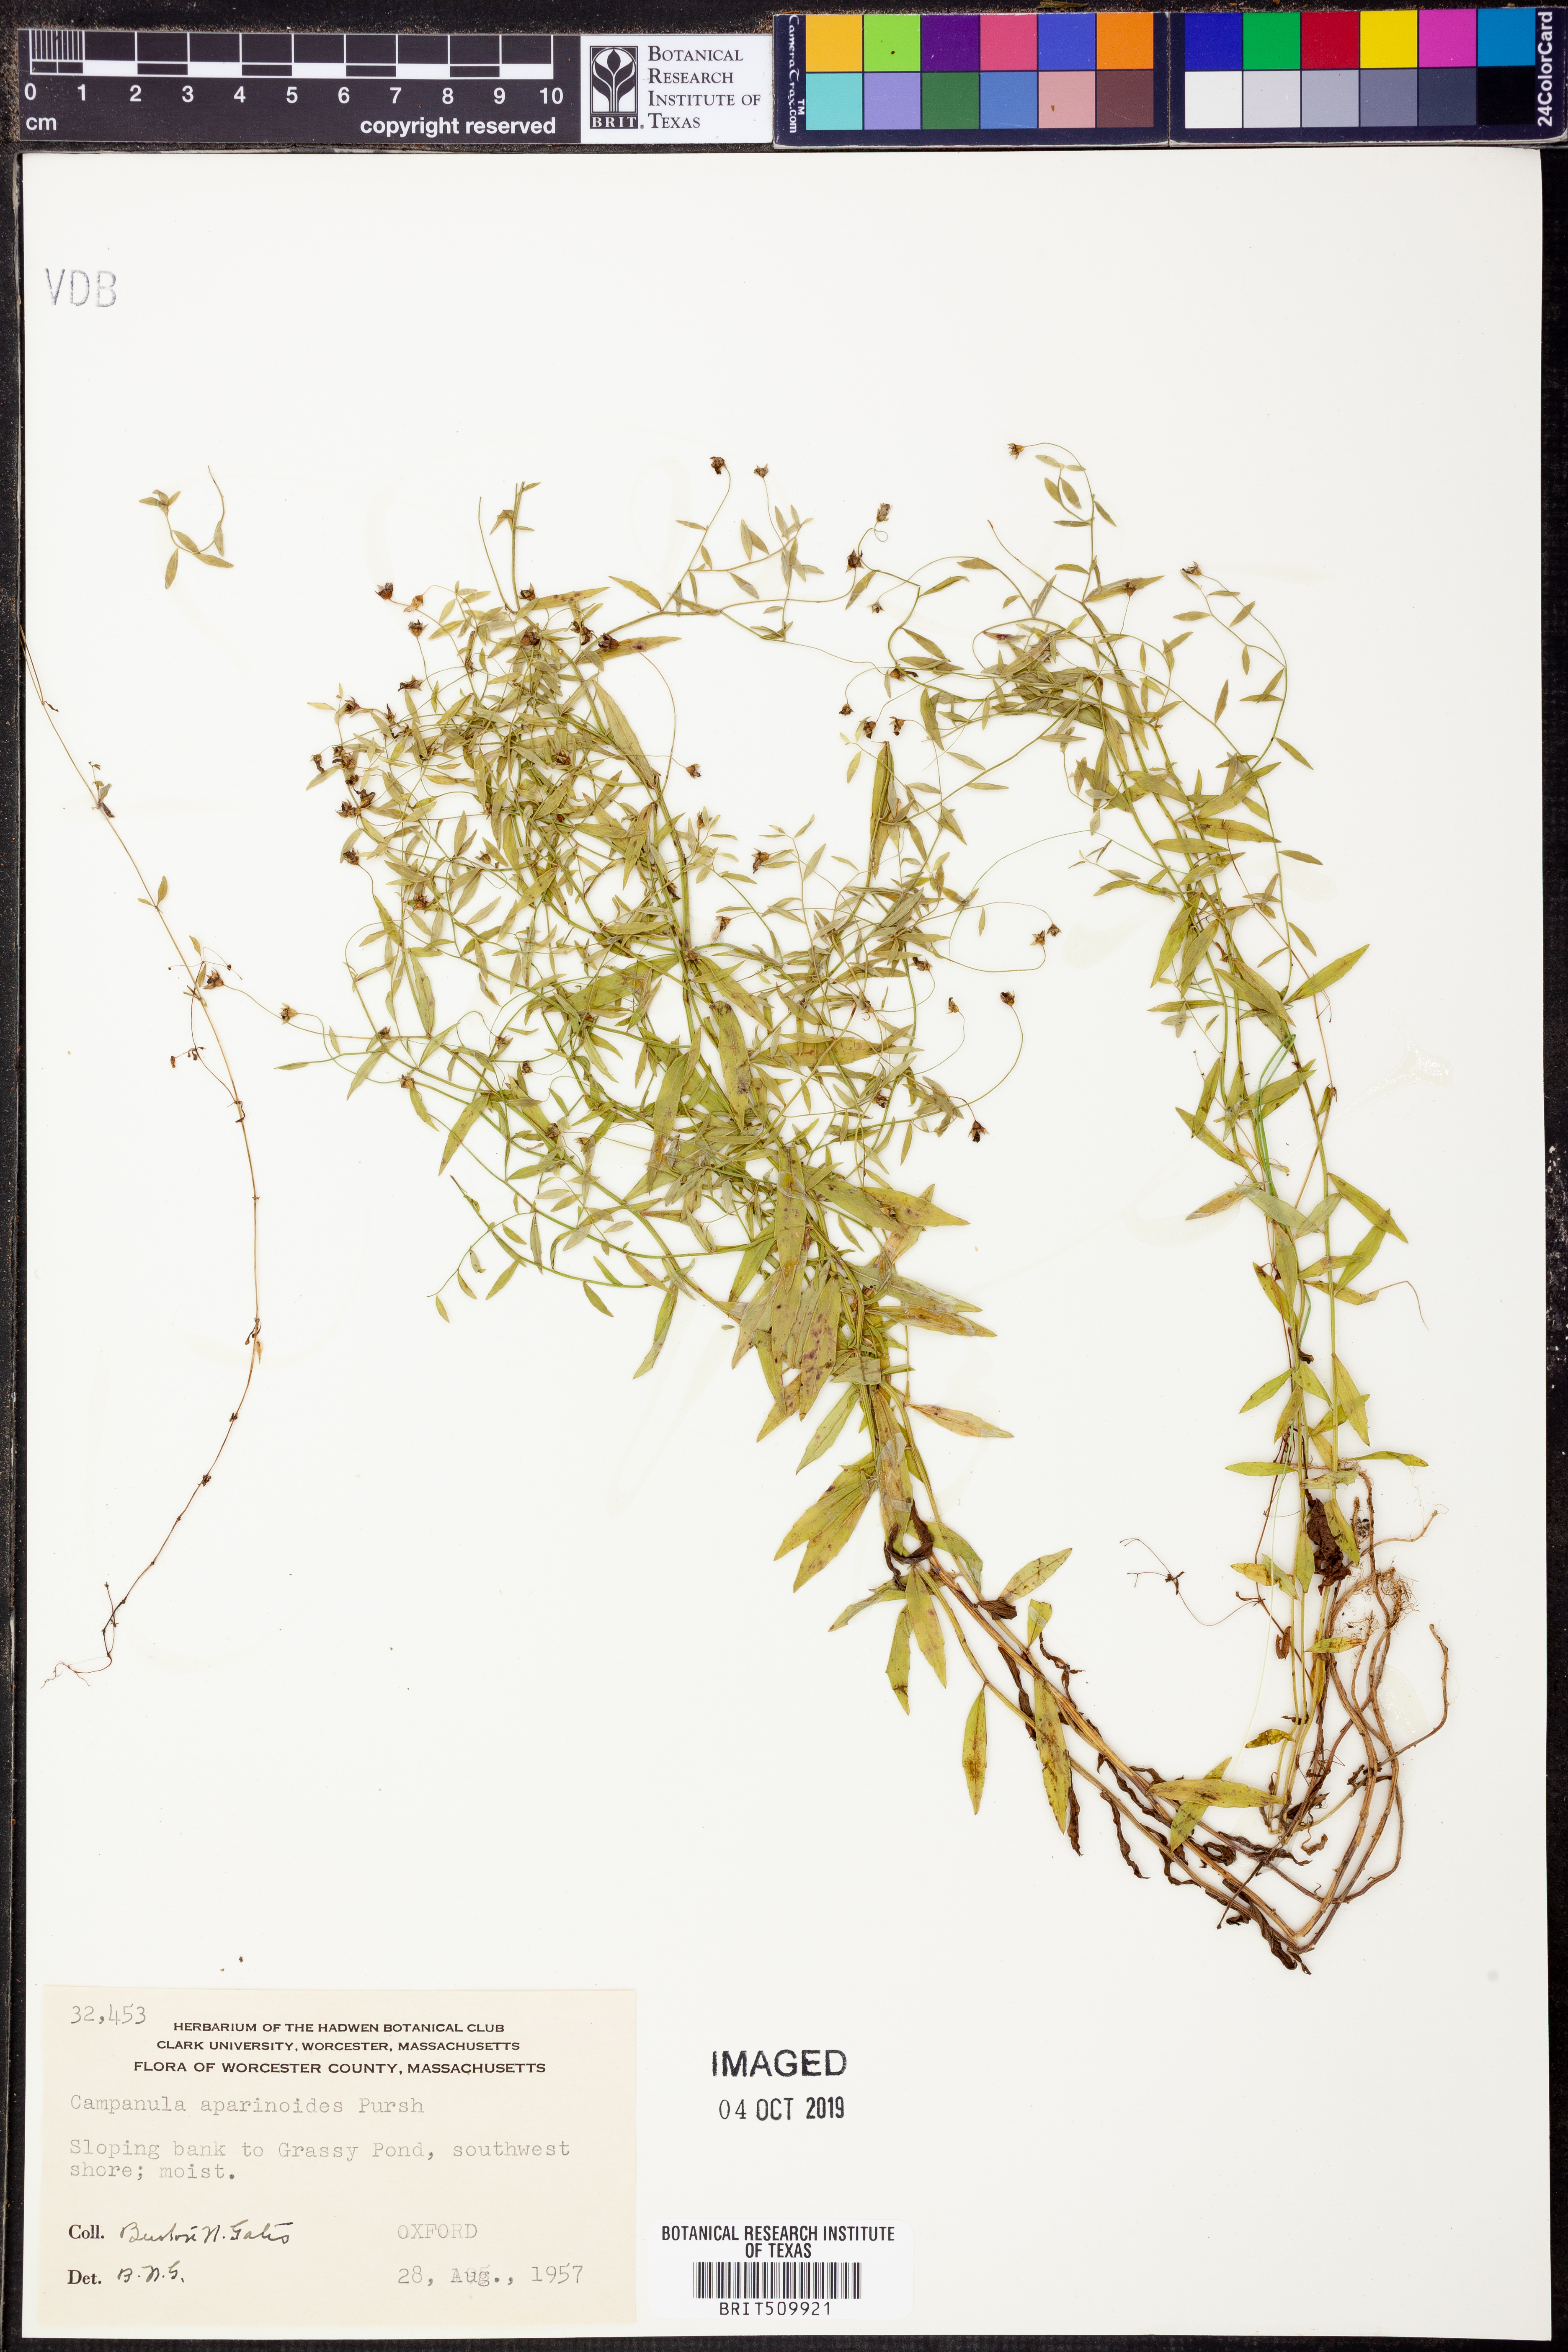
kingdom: Plantae
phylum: Tracheophyta
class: Magnoliopsida
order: Asterales
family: Campanulaceae
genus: Palustricodon
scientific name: Palustricodon aparinoides
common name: Bedstraw bellflower
